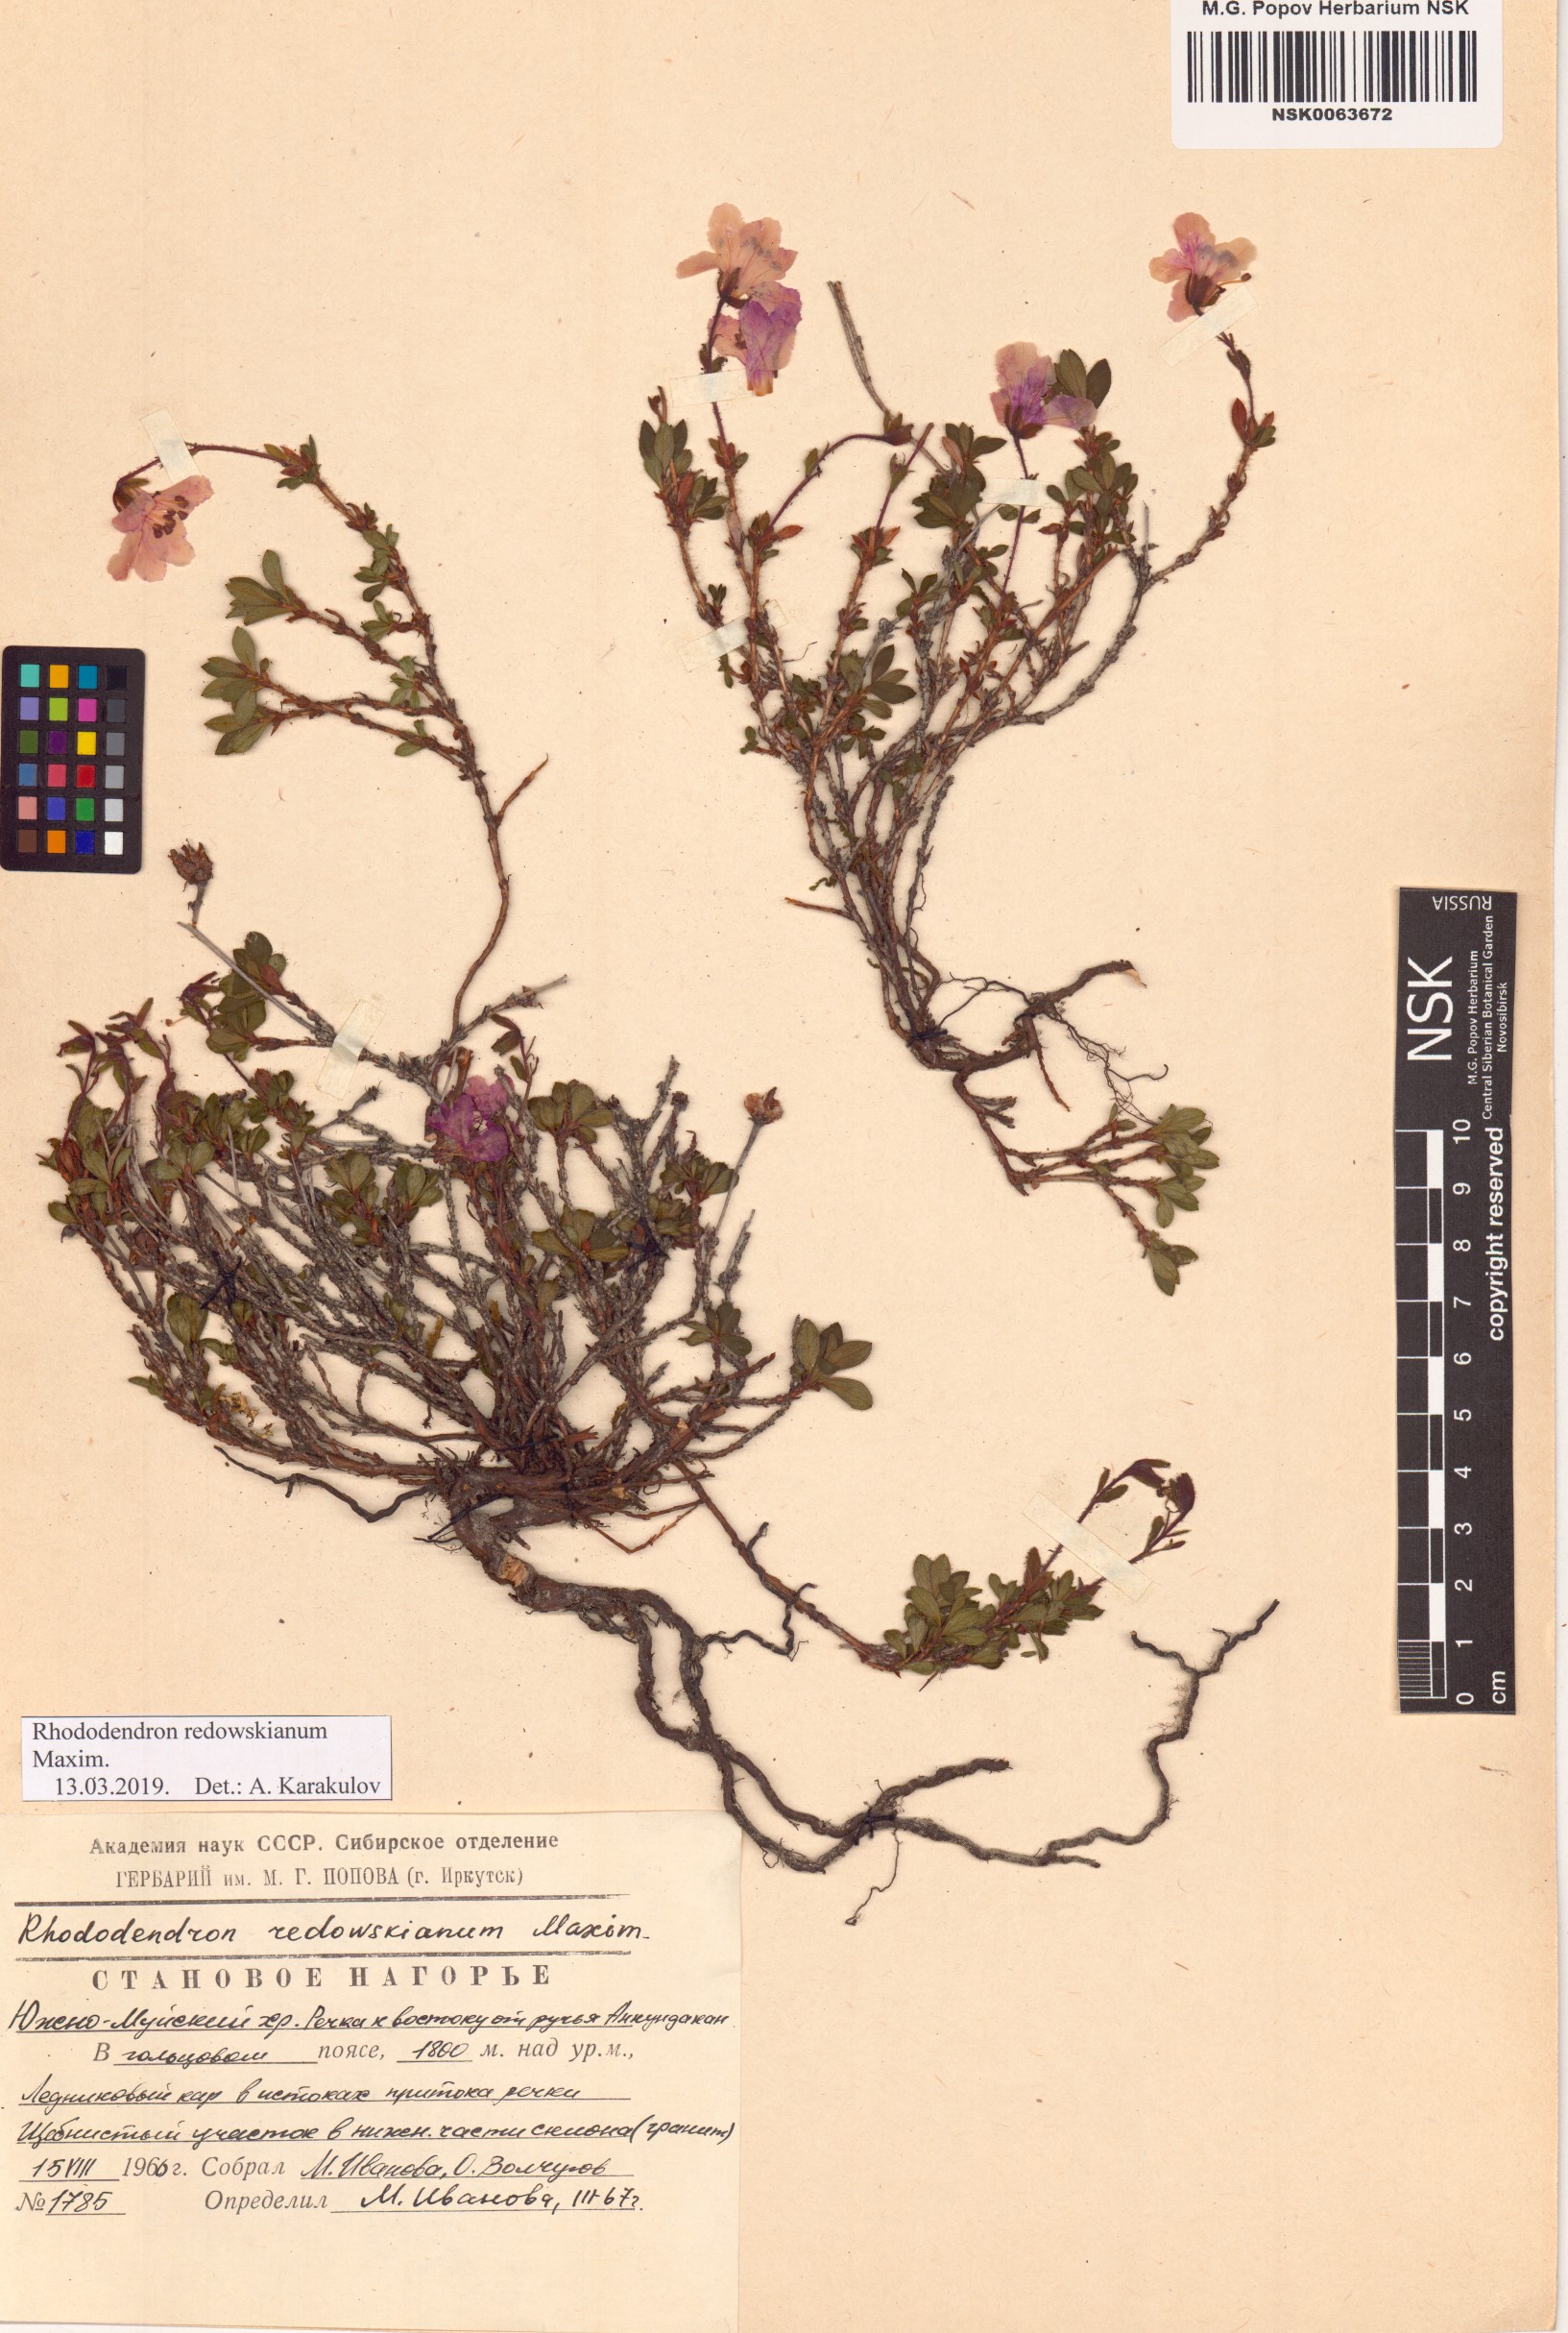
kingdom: Plantae
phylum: Tracheophyta
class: Magnoliopsida
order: Ericales
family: Ericaceae
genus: Rhododendron
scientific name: Rhododendron redowskianum
